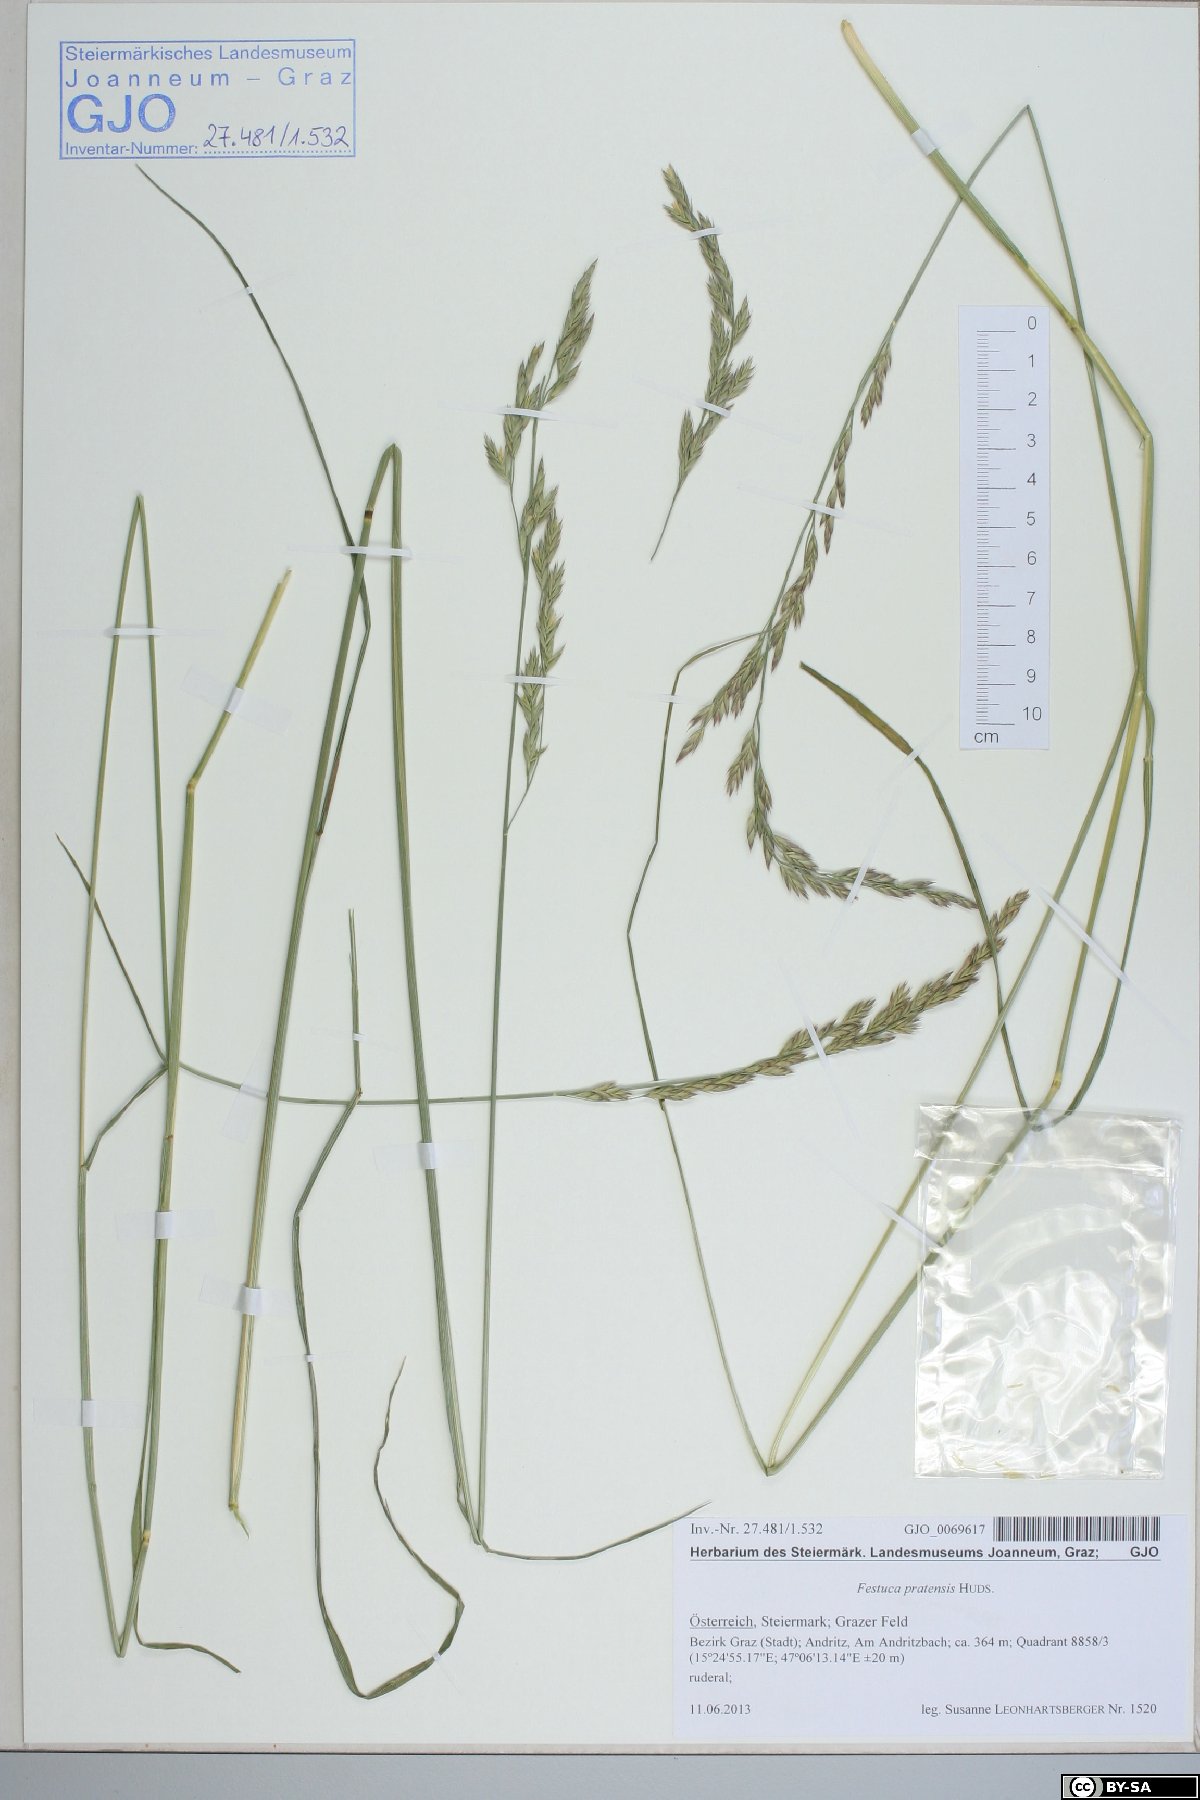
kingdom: Plantae
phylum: Tracheophyta
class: Liliopsida
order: Poales
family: Poaceae
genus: Lolium
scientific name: Lolium pratense
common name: Dover grass
